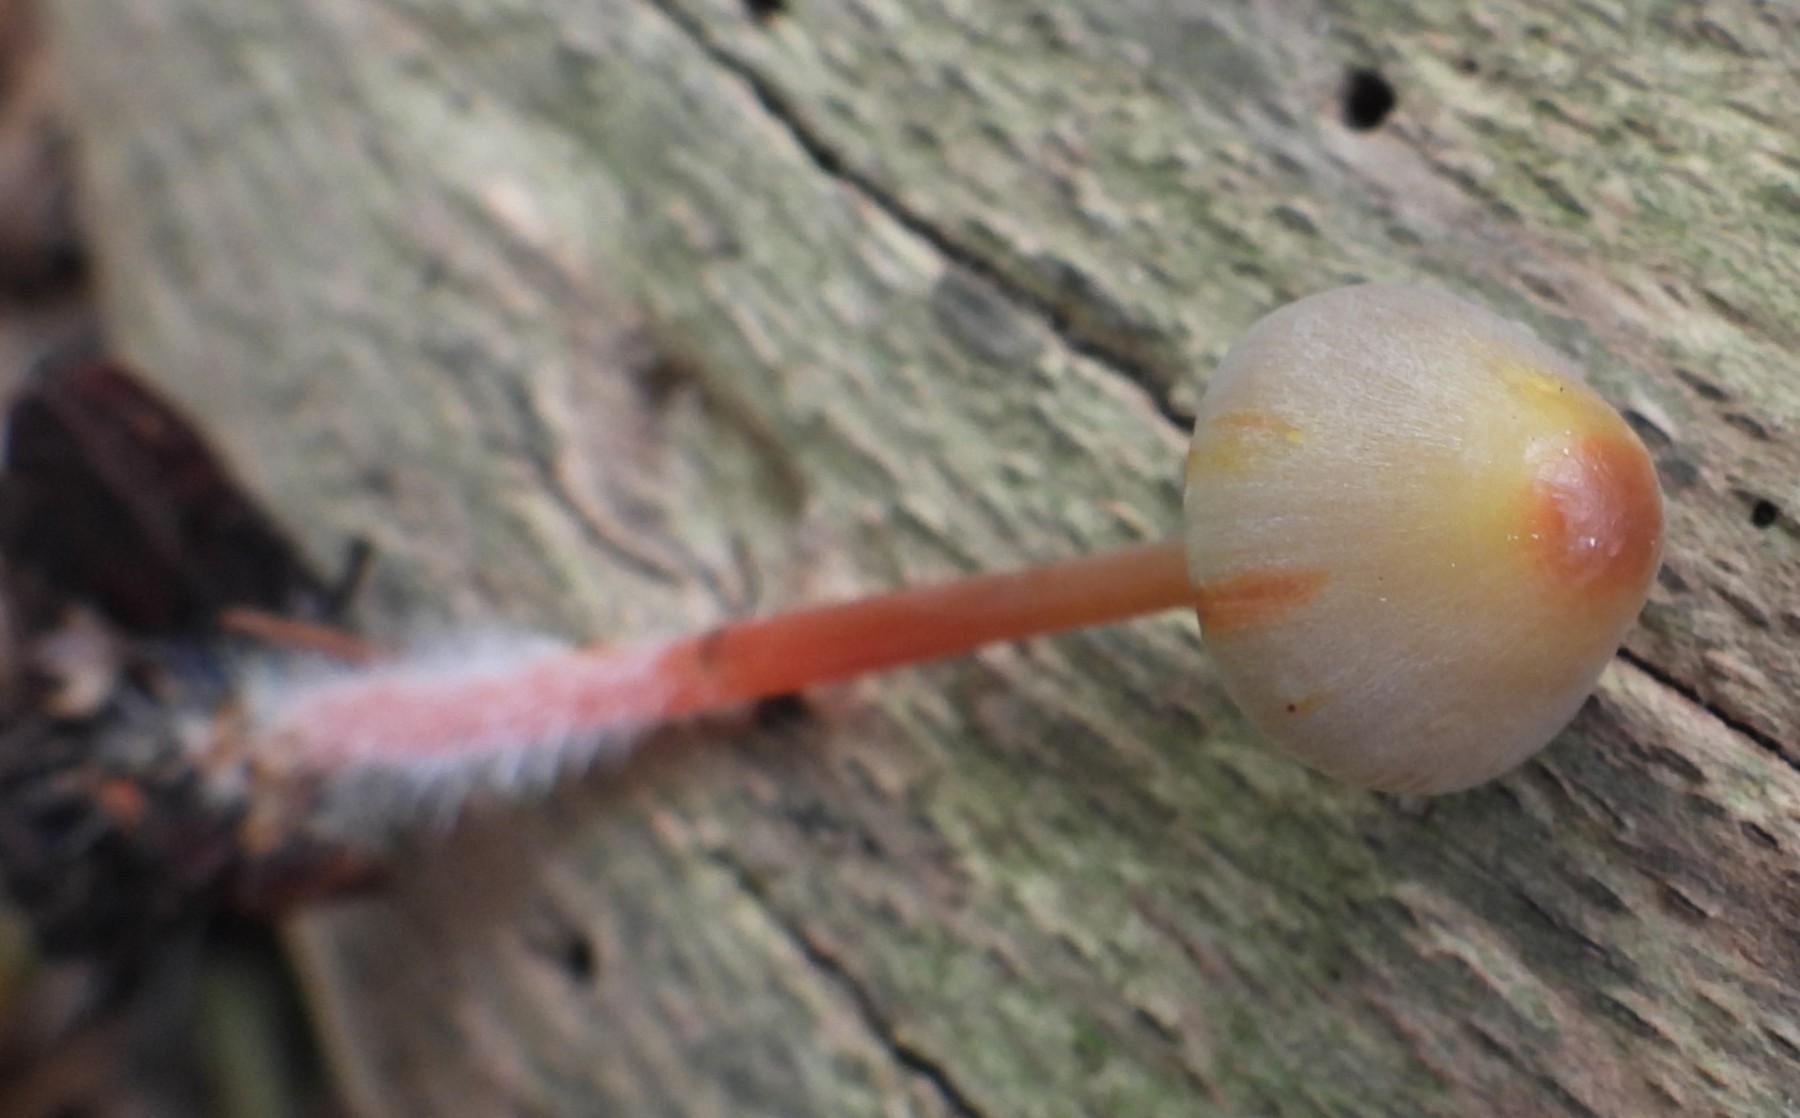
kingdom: Fungi
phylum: Basidiomycota
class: Agaricomycetes
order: Agaricales
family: Mycenaceae
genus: Mycena
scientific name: Mycena crocata
